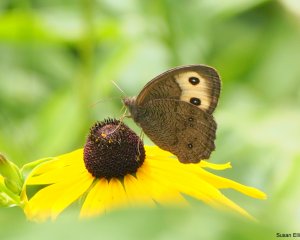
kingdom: Animalia
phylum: Arthropoda
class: Insecta
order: Lepidoptera
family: Nymphalidae
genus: Cercyonis
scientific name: Cercyonis pegala
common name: Common Wood-Nymph
